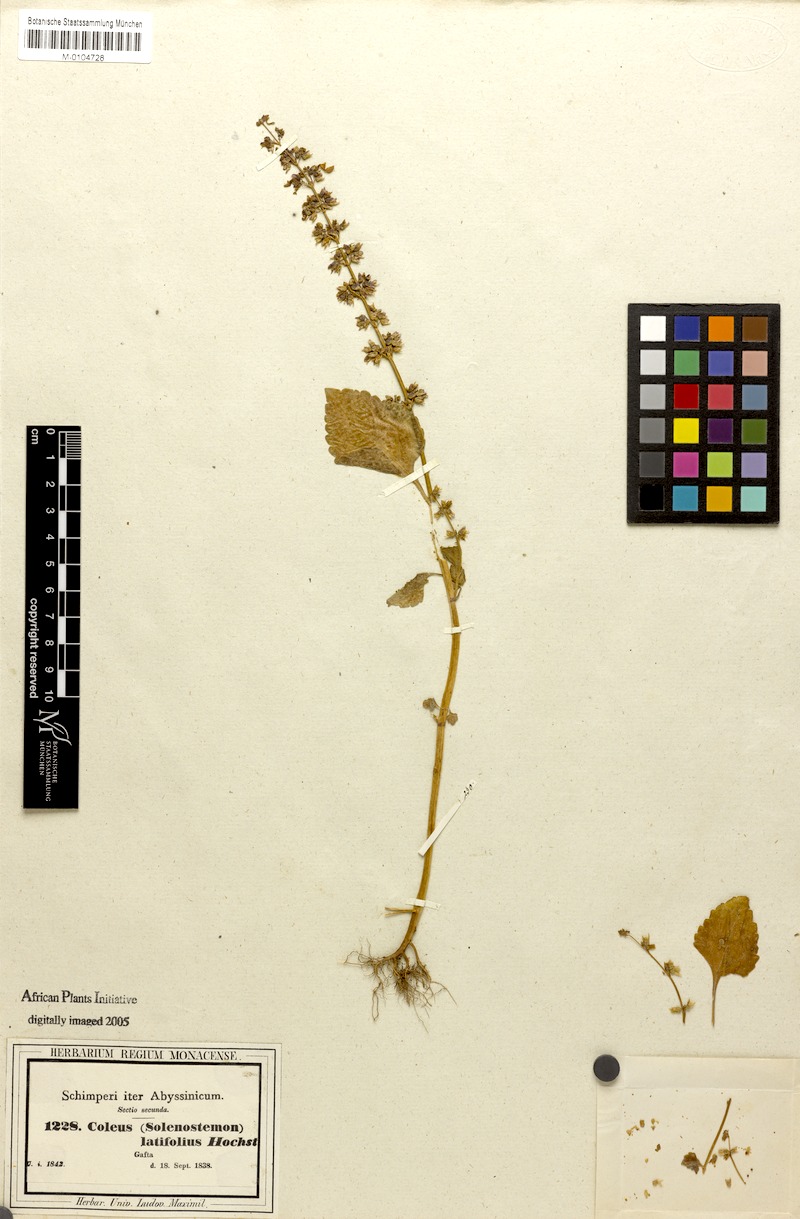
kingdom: Plantae
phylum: Tracheophyta
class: Magnoliopsida
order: Lamiales
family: Lamiaceae
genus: Coleus
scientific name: Coleus bojeri
